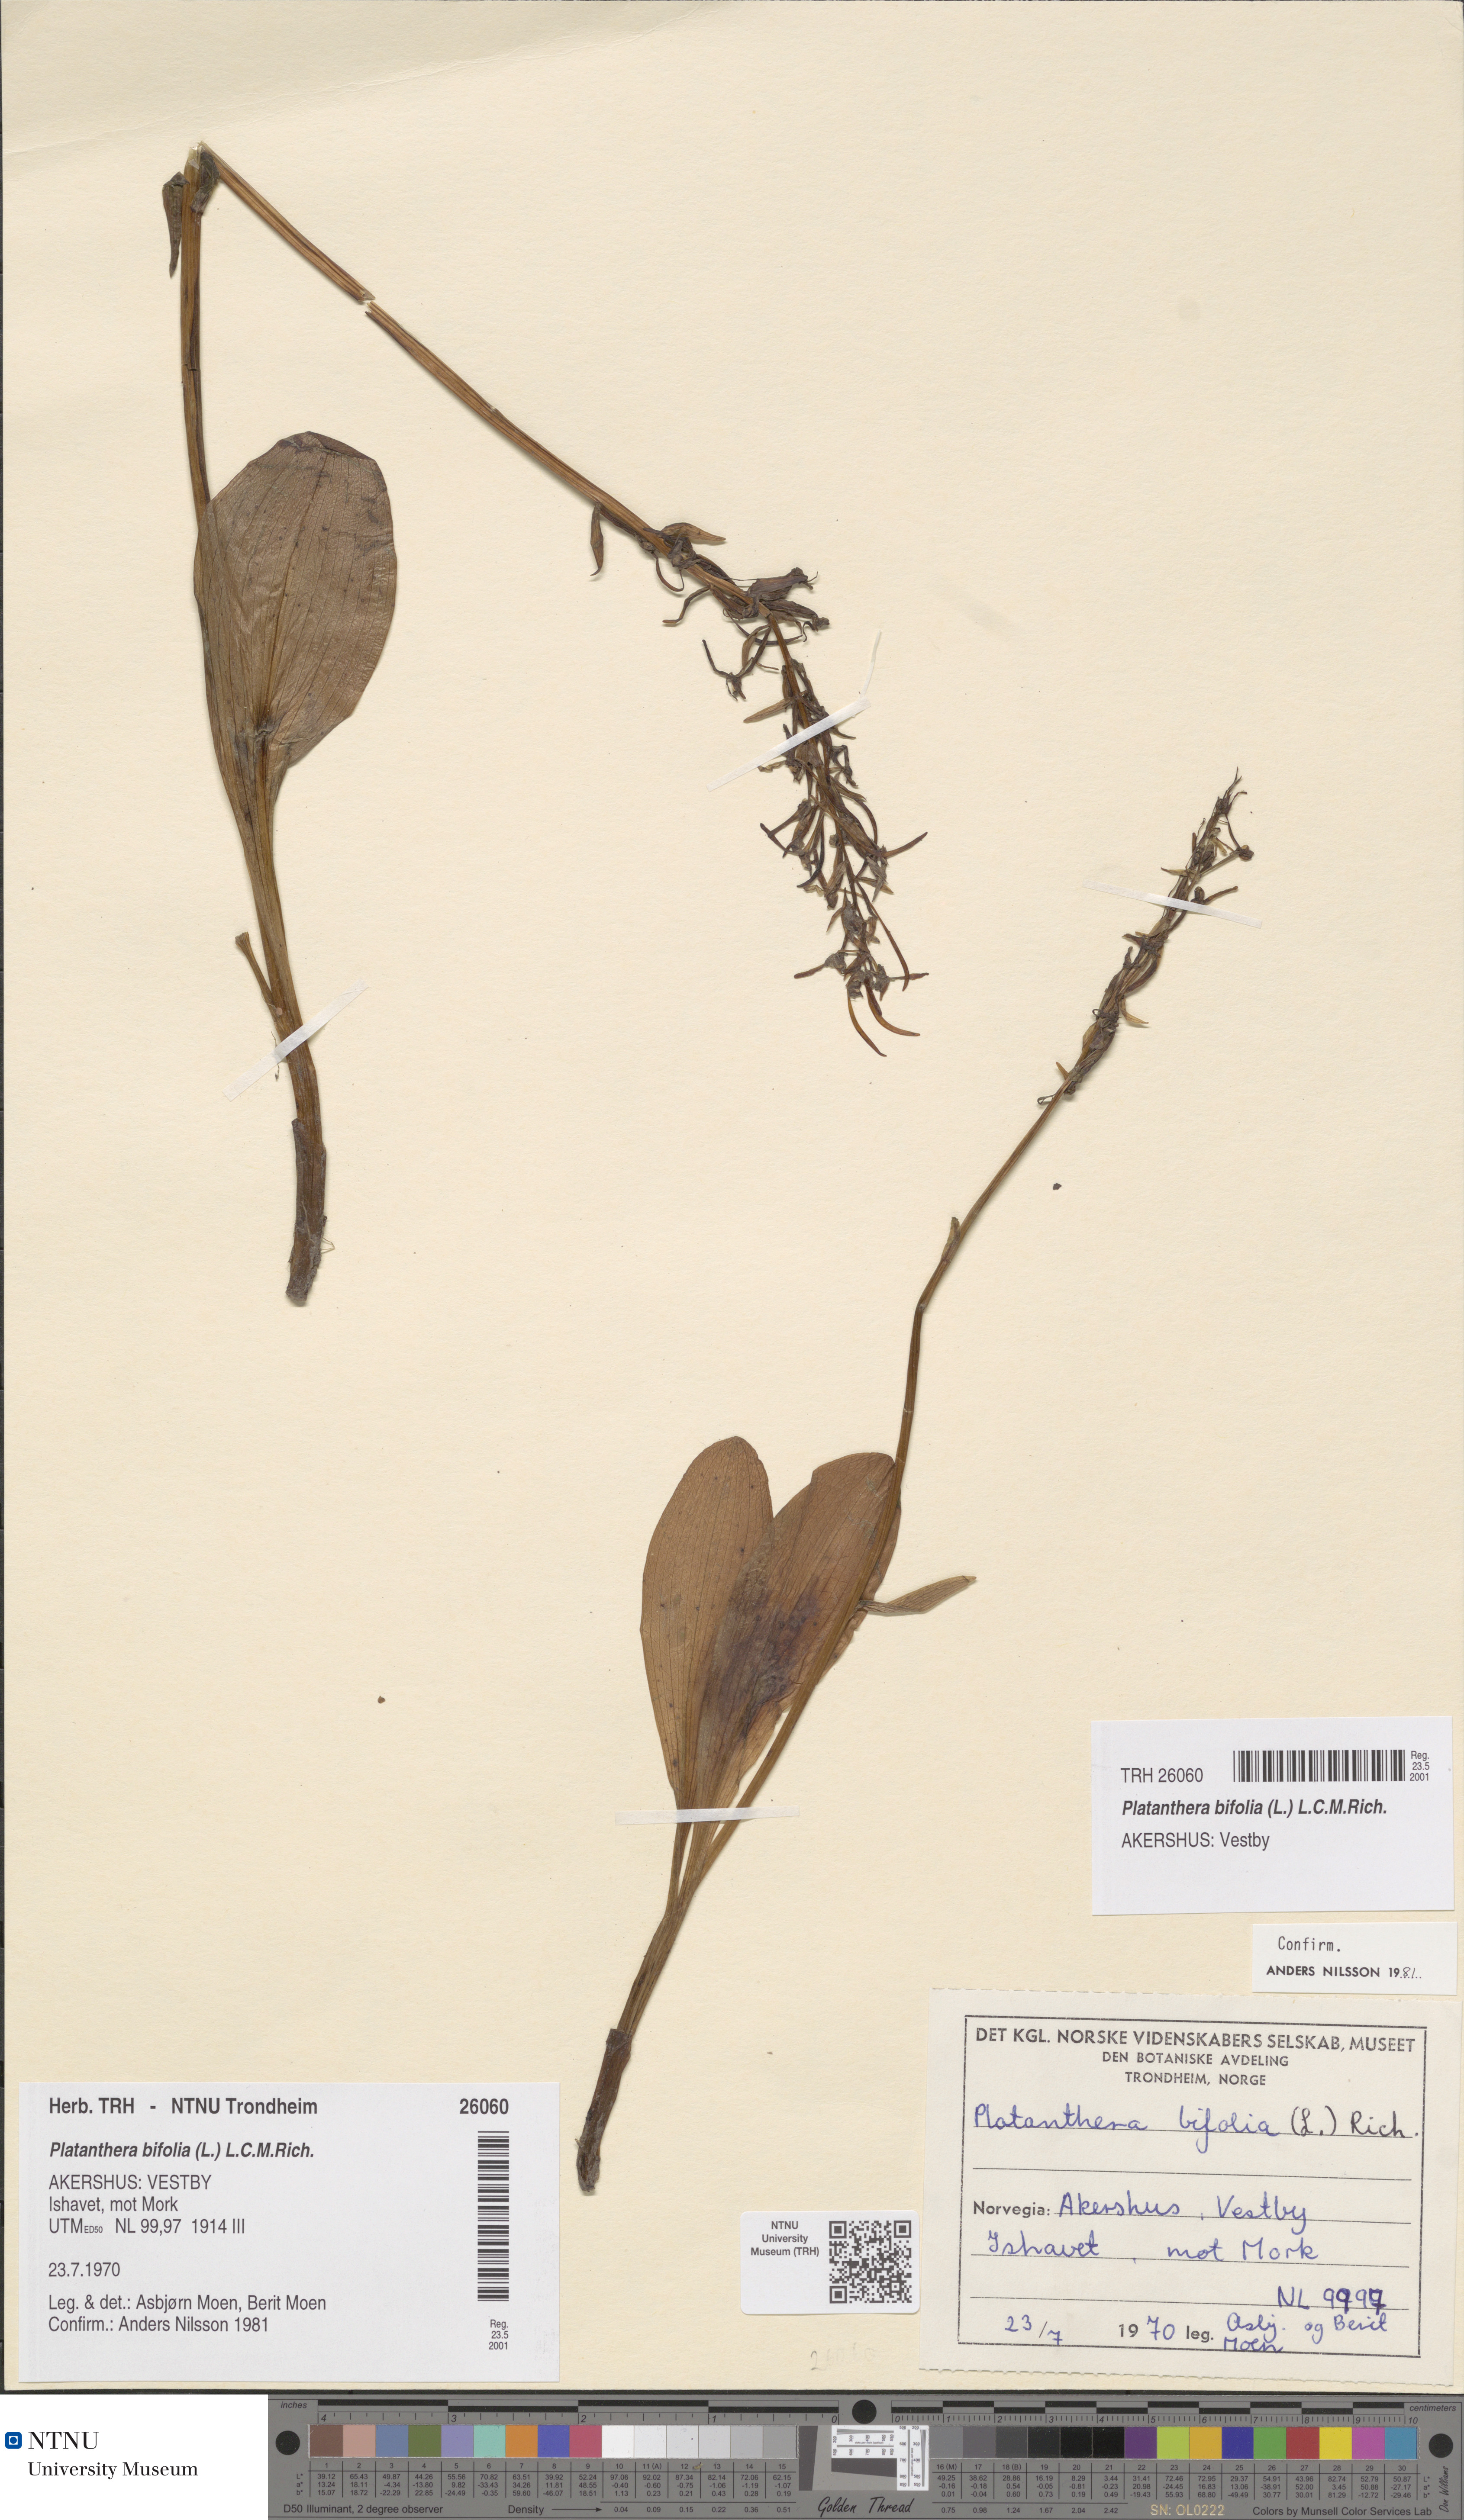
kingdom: Plantae
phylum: Tracheophyta
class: Liliopsida
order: Asparagales
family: Orchidaceae
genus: Platanthera
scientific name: Platanthera bifolia
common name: Lesser butterfly-orchid
